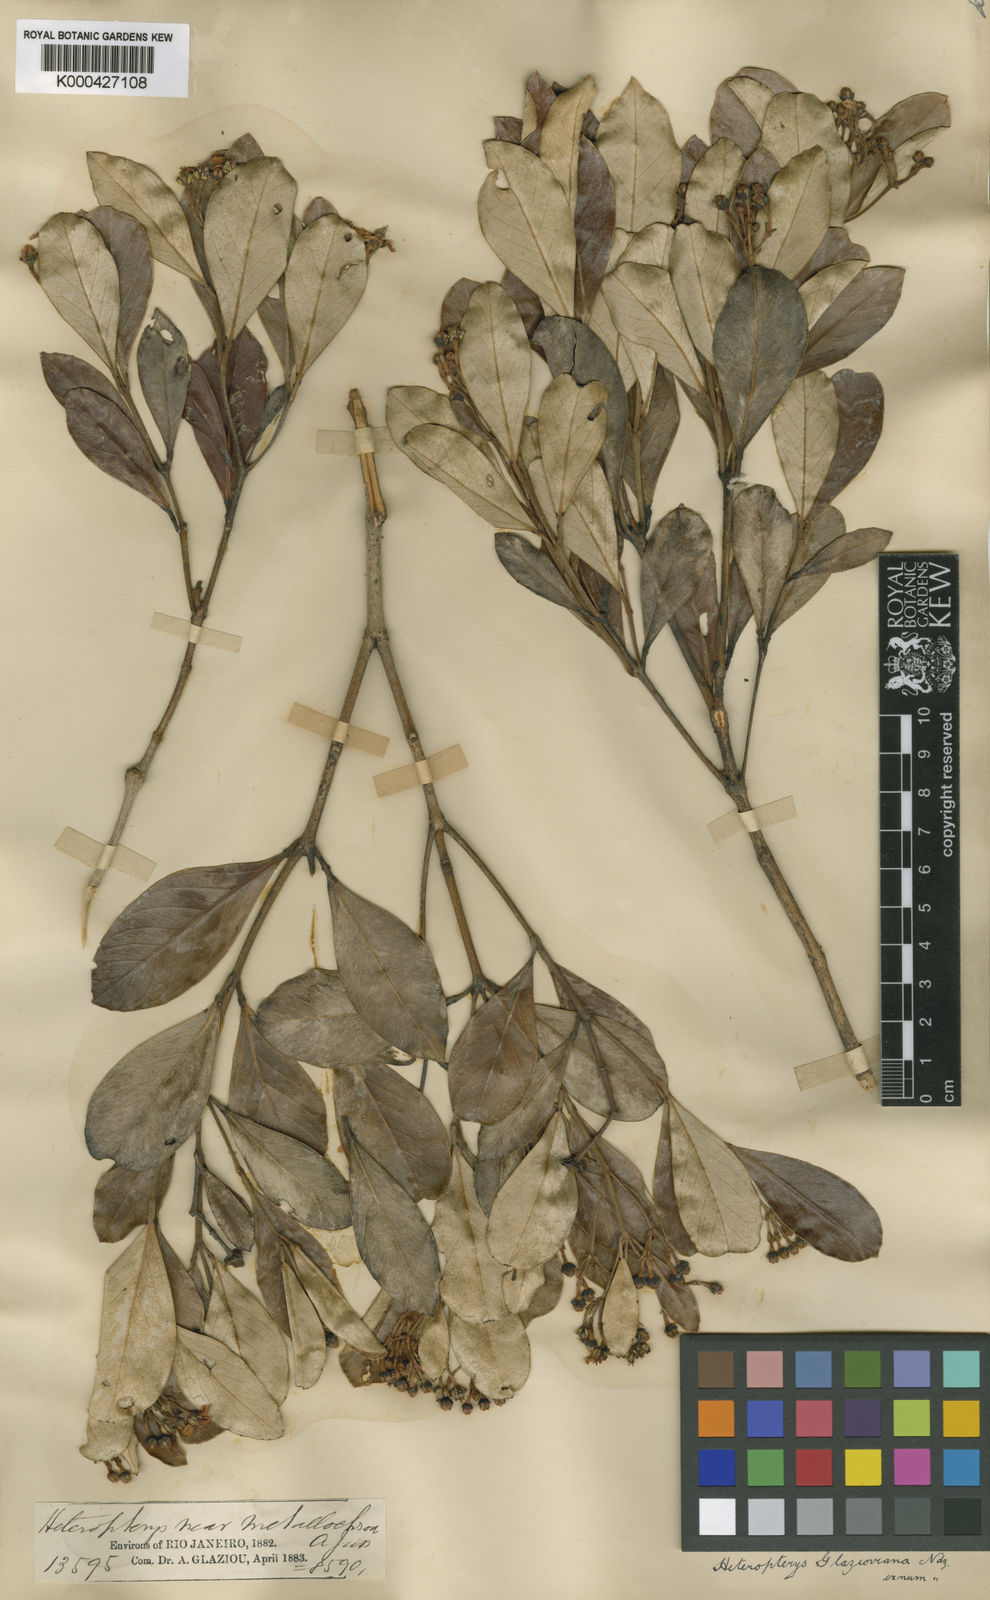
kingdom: Plantae
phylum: Tracheophyta
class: Magnoliopsida
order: Malpighiales
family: Malpighiaceae
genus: Heteropterys
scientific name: Heteropterys glazioviana
